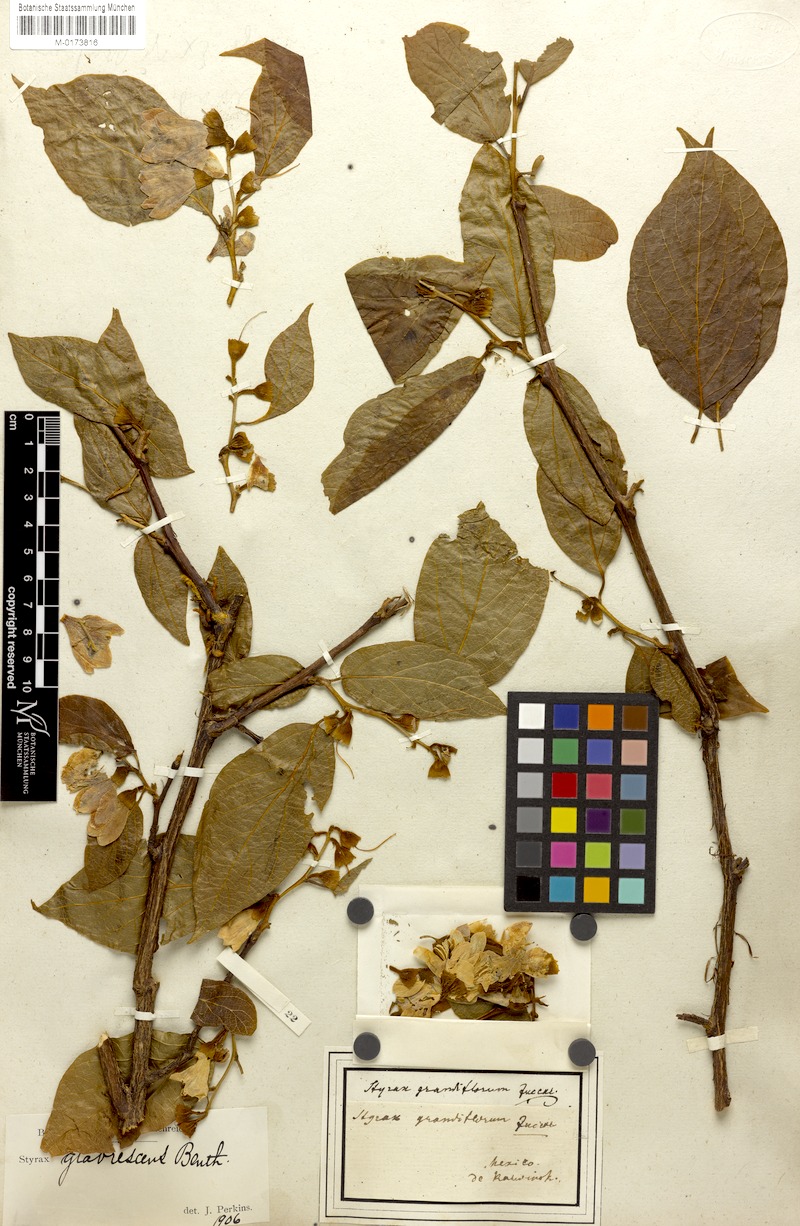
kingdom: Plantae
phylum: Tracheophyta
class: Magnoliopsida
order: Ericales
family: Styracaceae
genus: Styrax
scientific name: Styrax glabrescens
